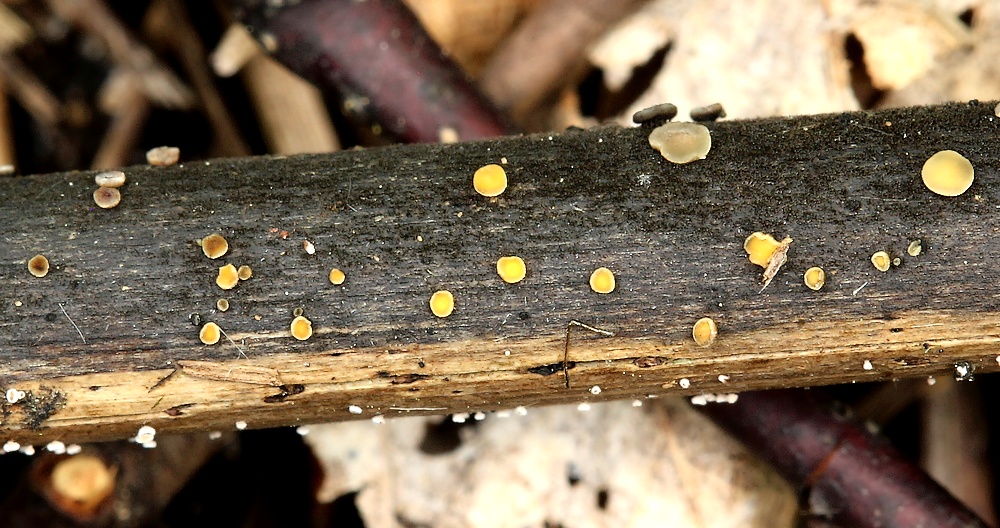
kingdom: Fungi
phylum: Ascomycota
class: Leotiomycetes
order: Helotiales
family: Mollisiaceae
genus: Trichobelonium
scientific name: Trichobelonium kneiffii
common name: tagrør-gråskive
